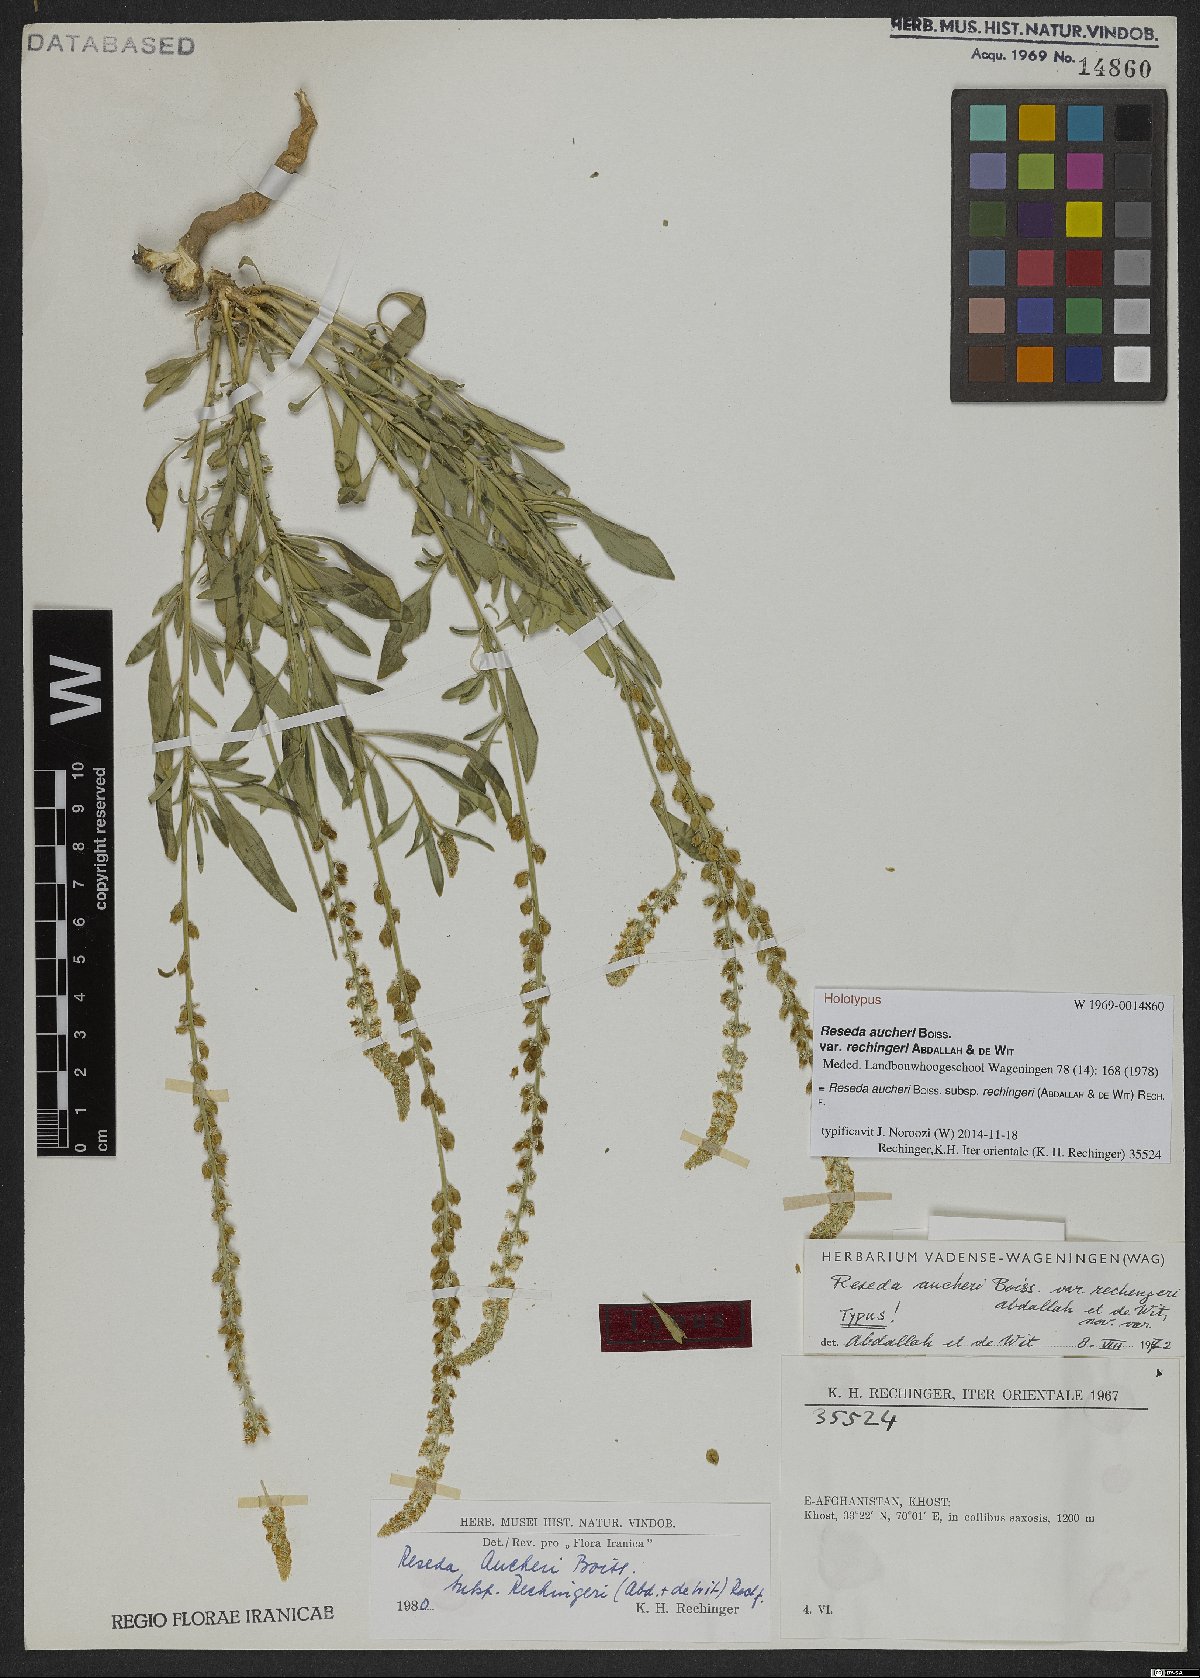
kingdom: Plantae
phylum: Tracheophyta
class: Magnoliopsida
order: Brassicales
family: Resedaceae
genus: Reseda
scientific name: Reseda aucheri
